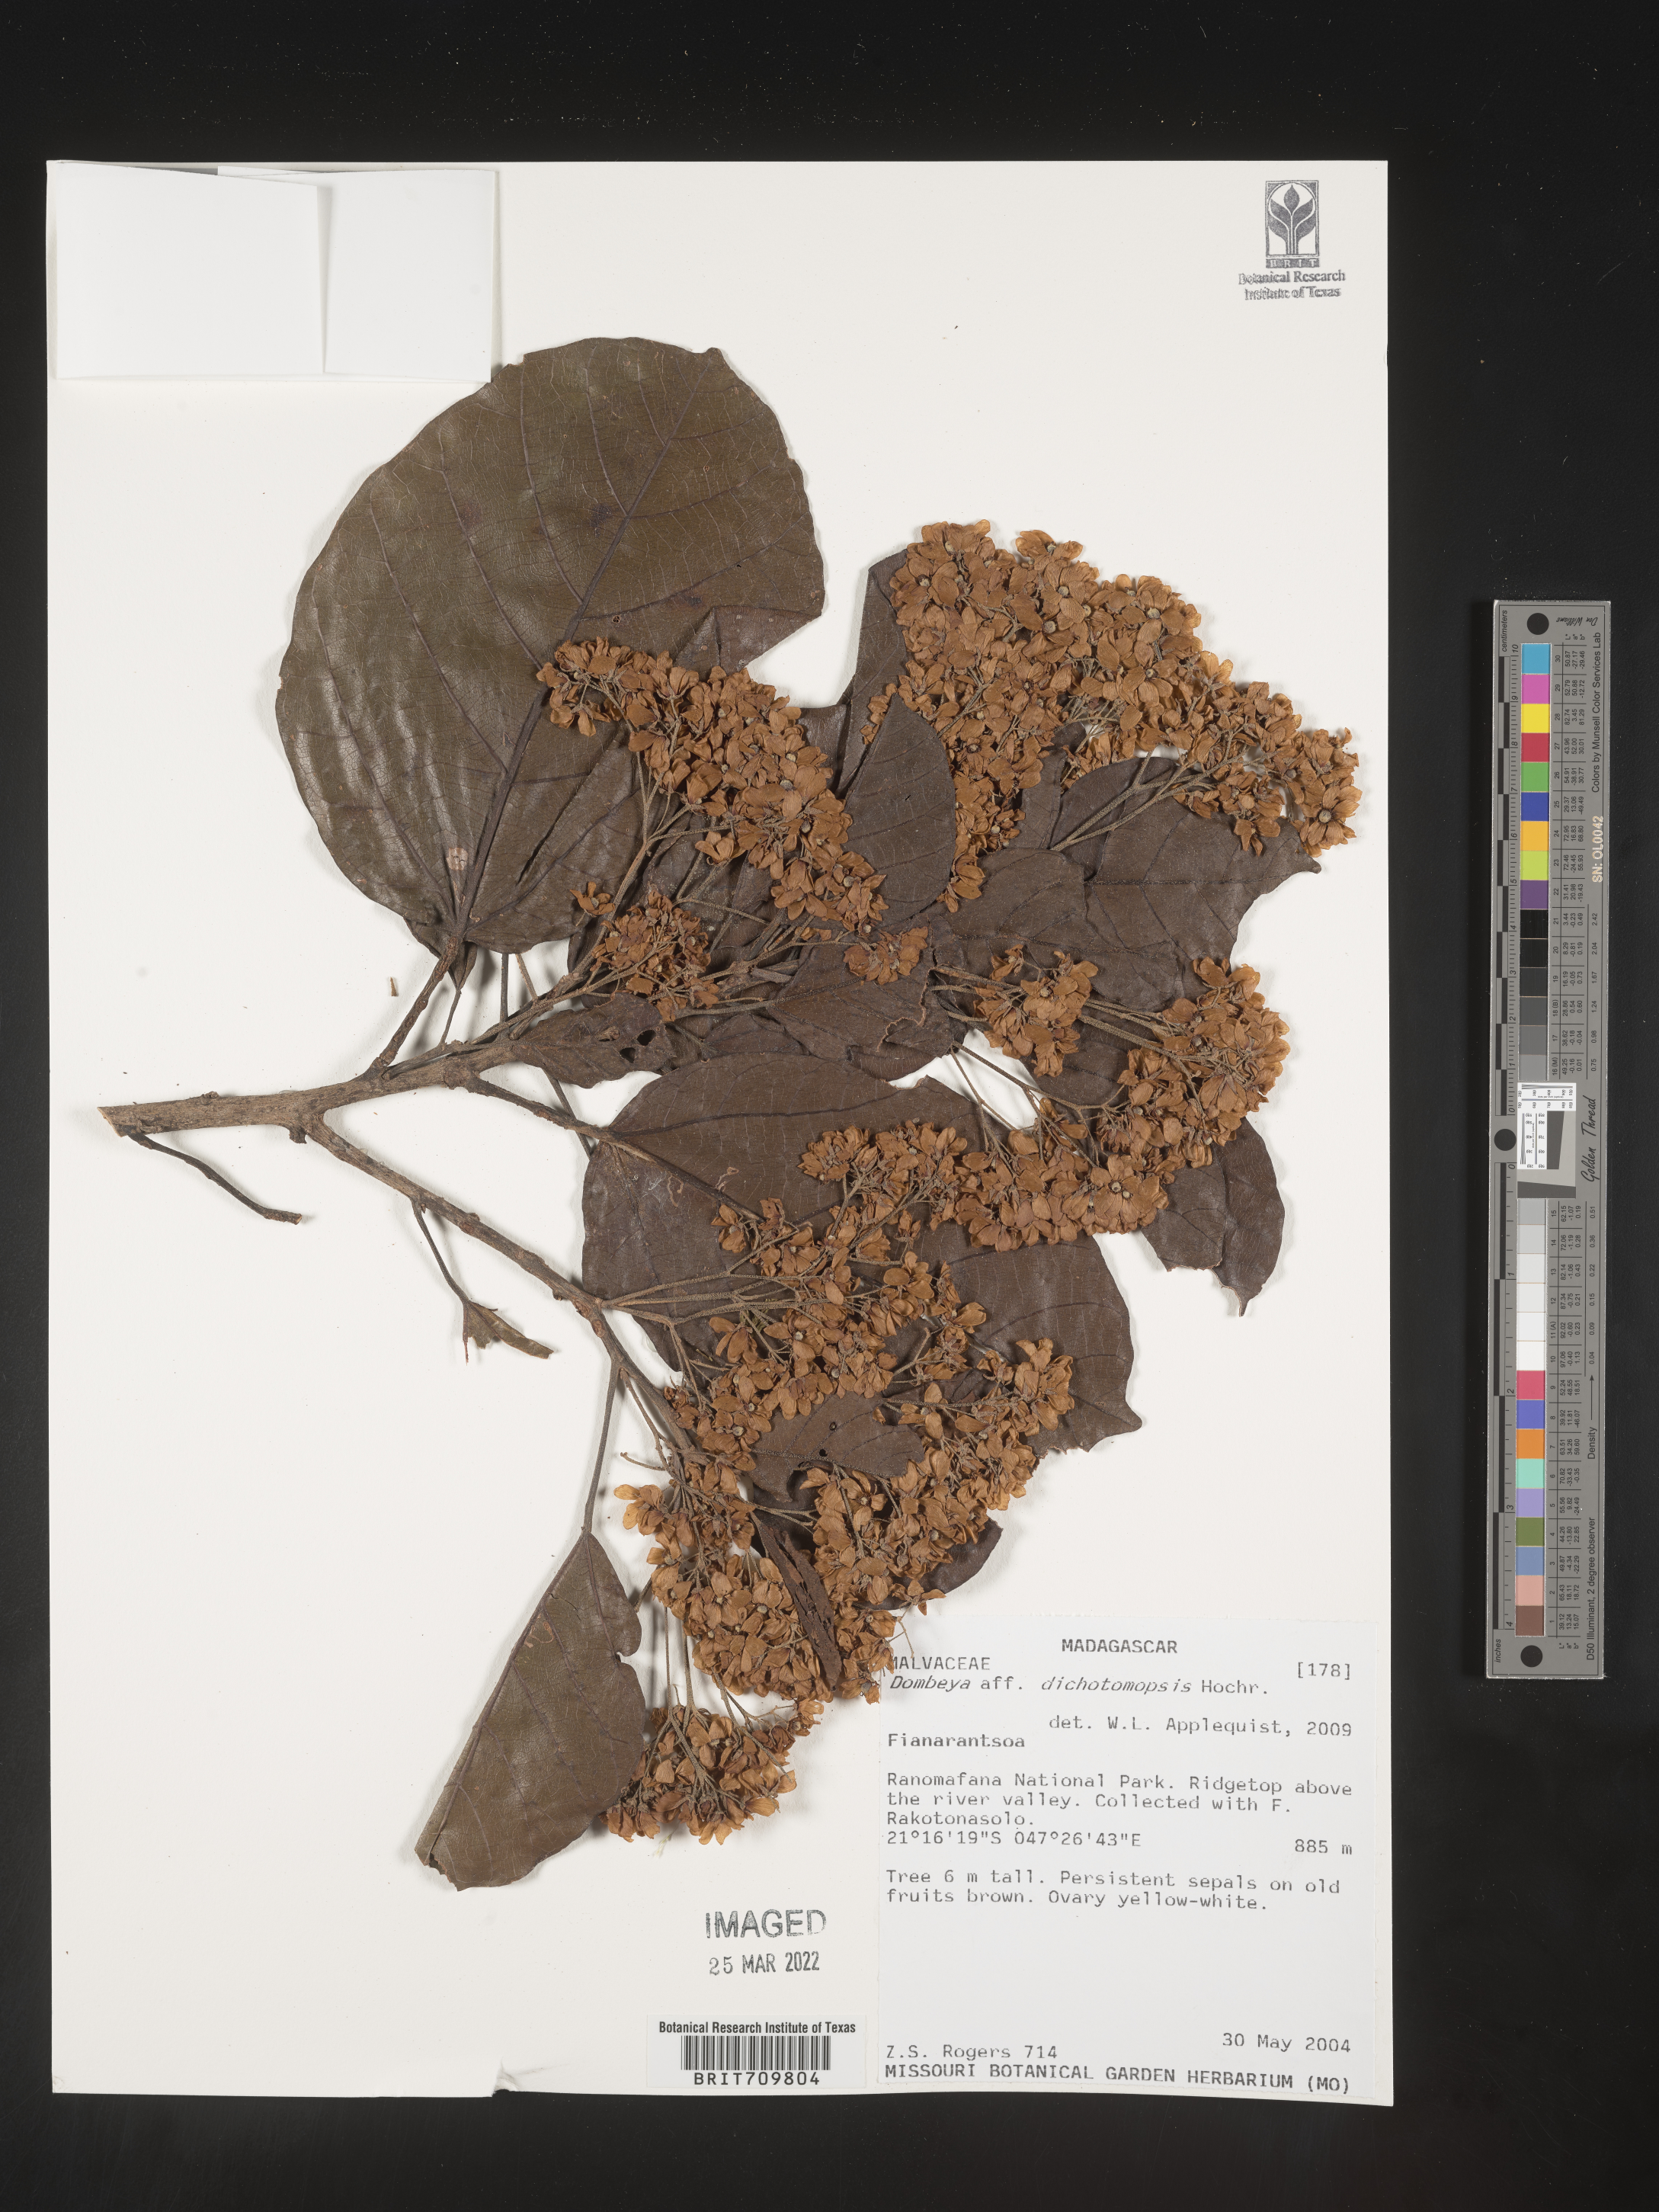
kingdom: Plantae
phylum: Tracheophyta
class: Magnoliopsida
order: Malvales
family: Malvaceae
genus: Dombeya
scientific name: Dombeya
